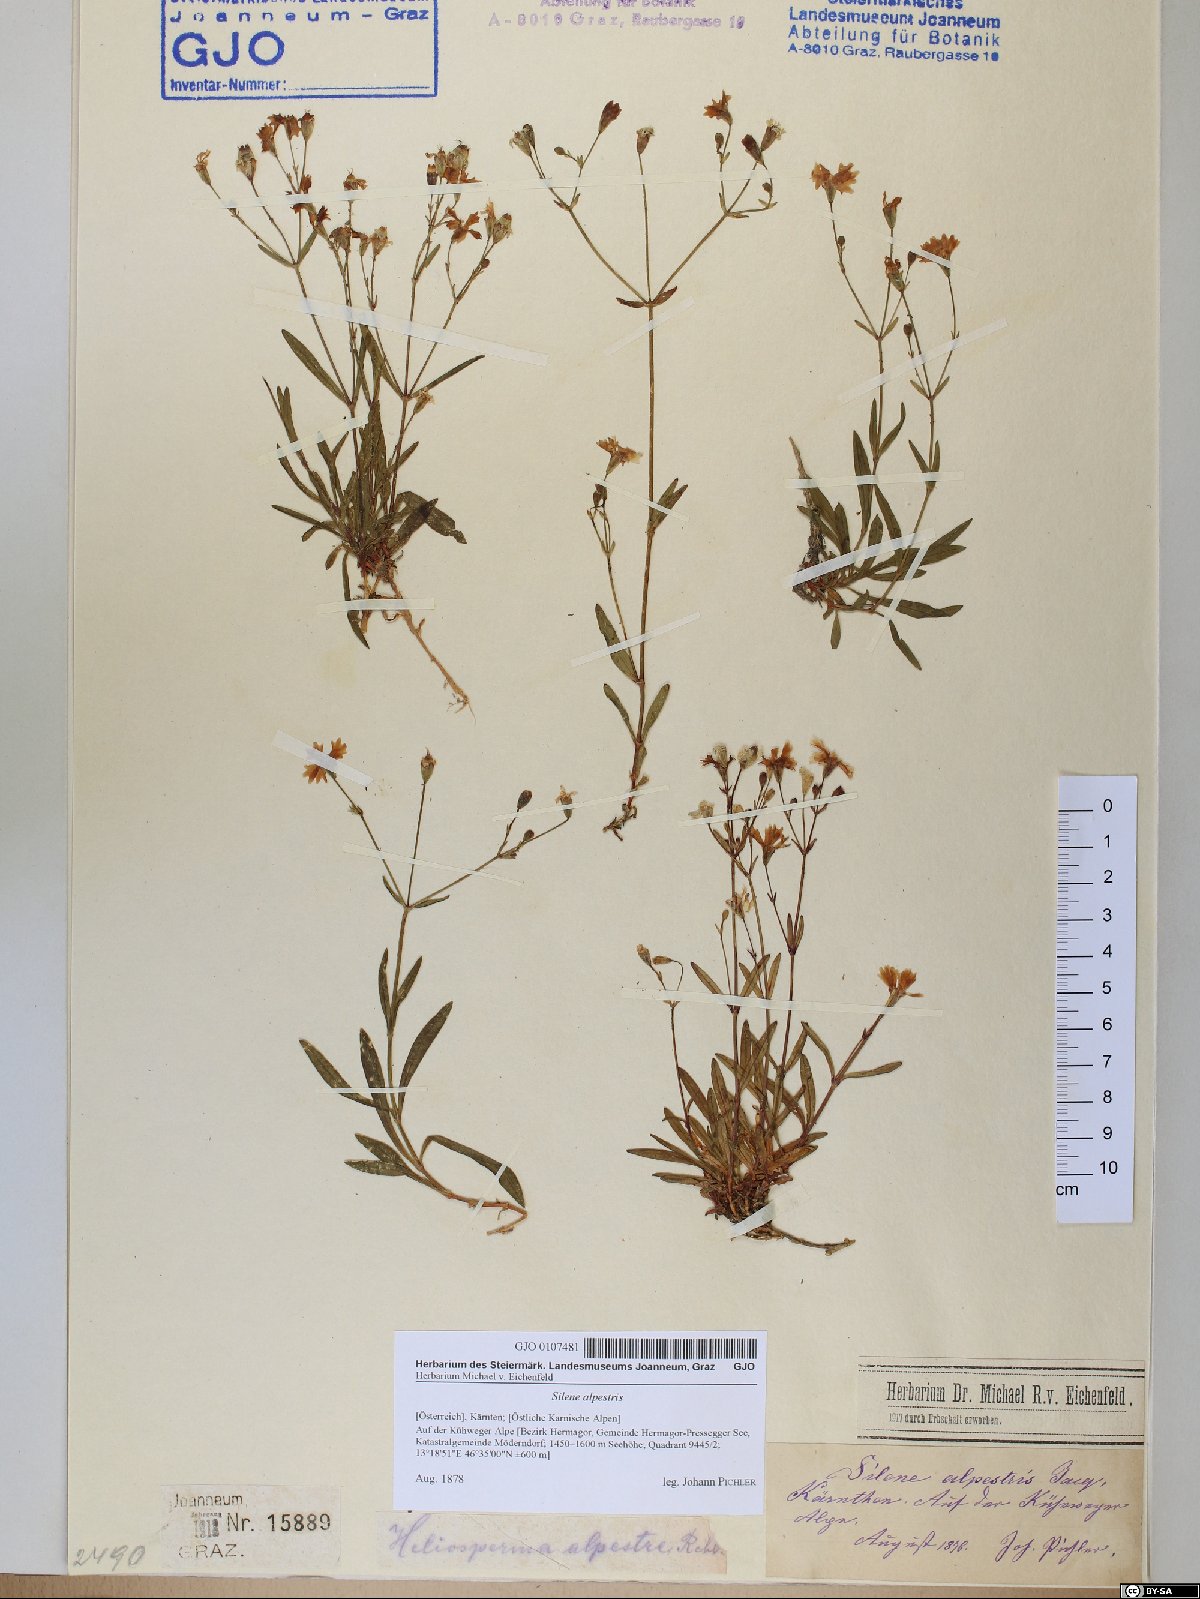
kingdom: Plantae
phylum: Tracheophyta
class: Magnoliopsida
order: Caryophyllales
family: Caryophyllaceae
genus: Heliosperma
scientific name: Heliosperma alpestre
